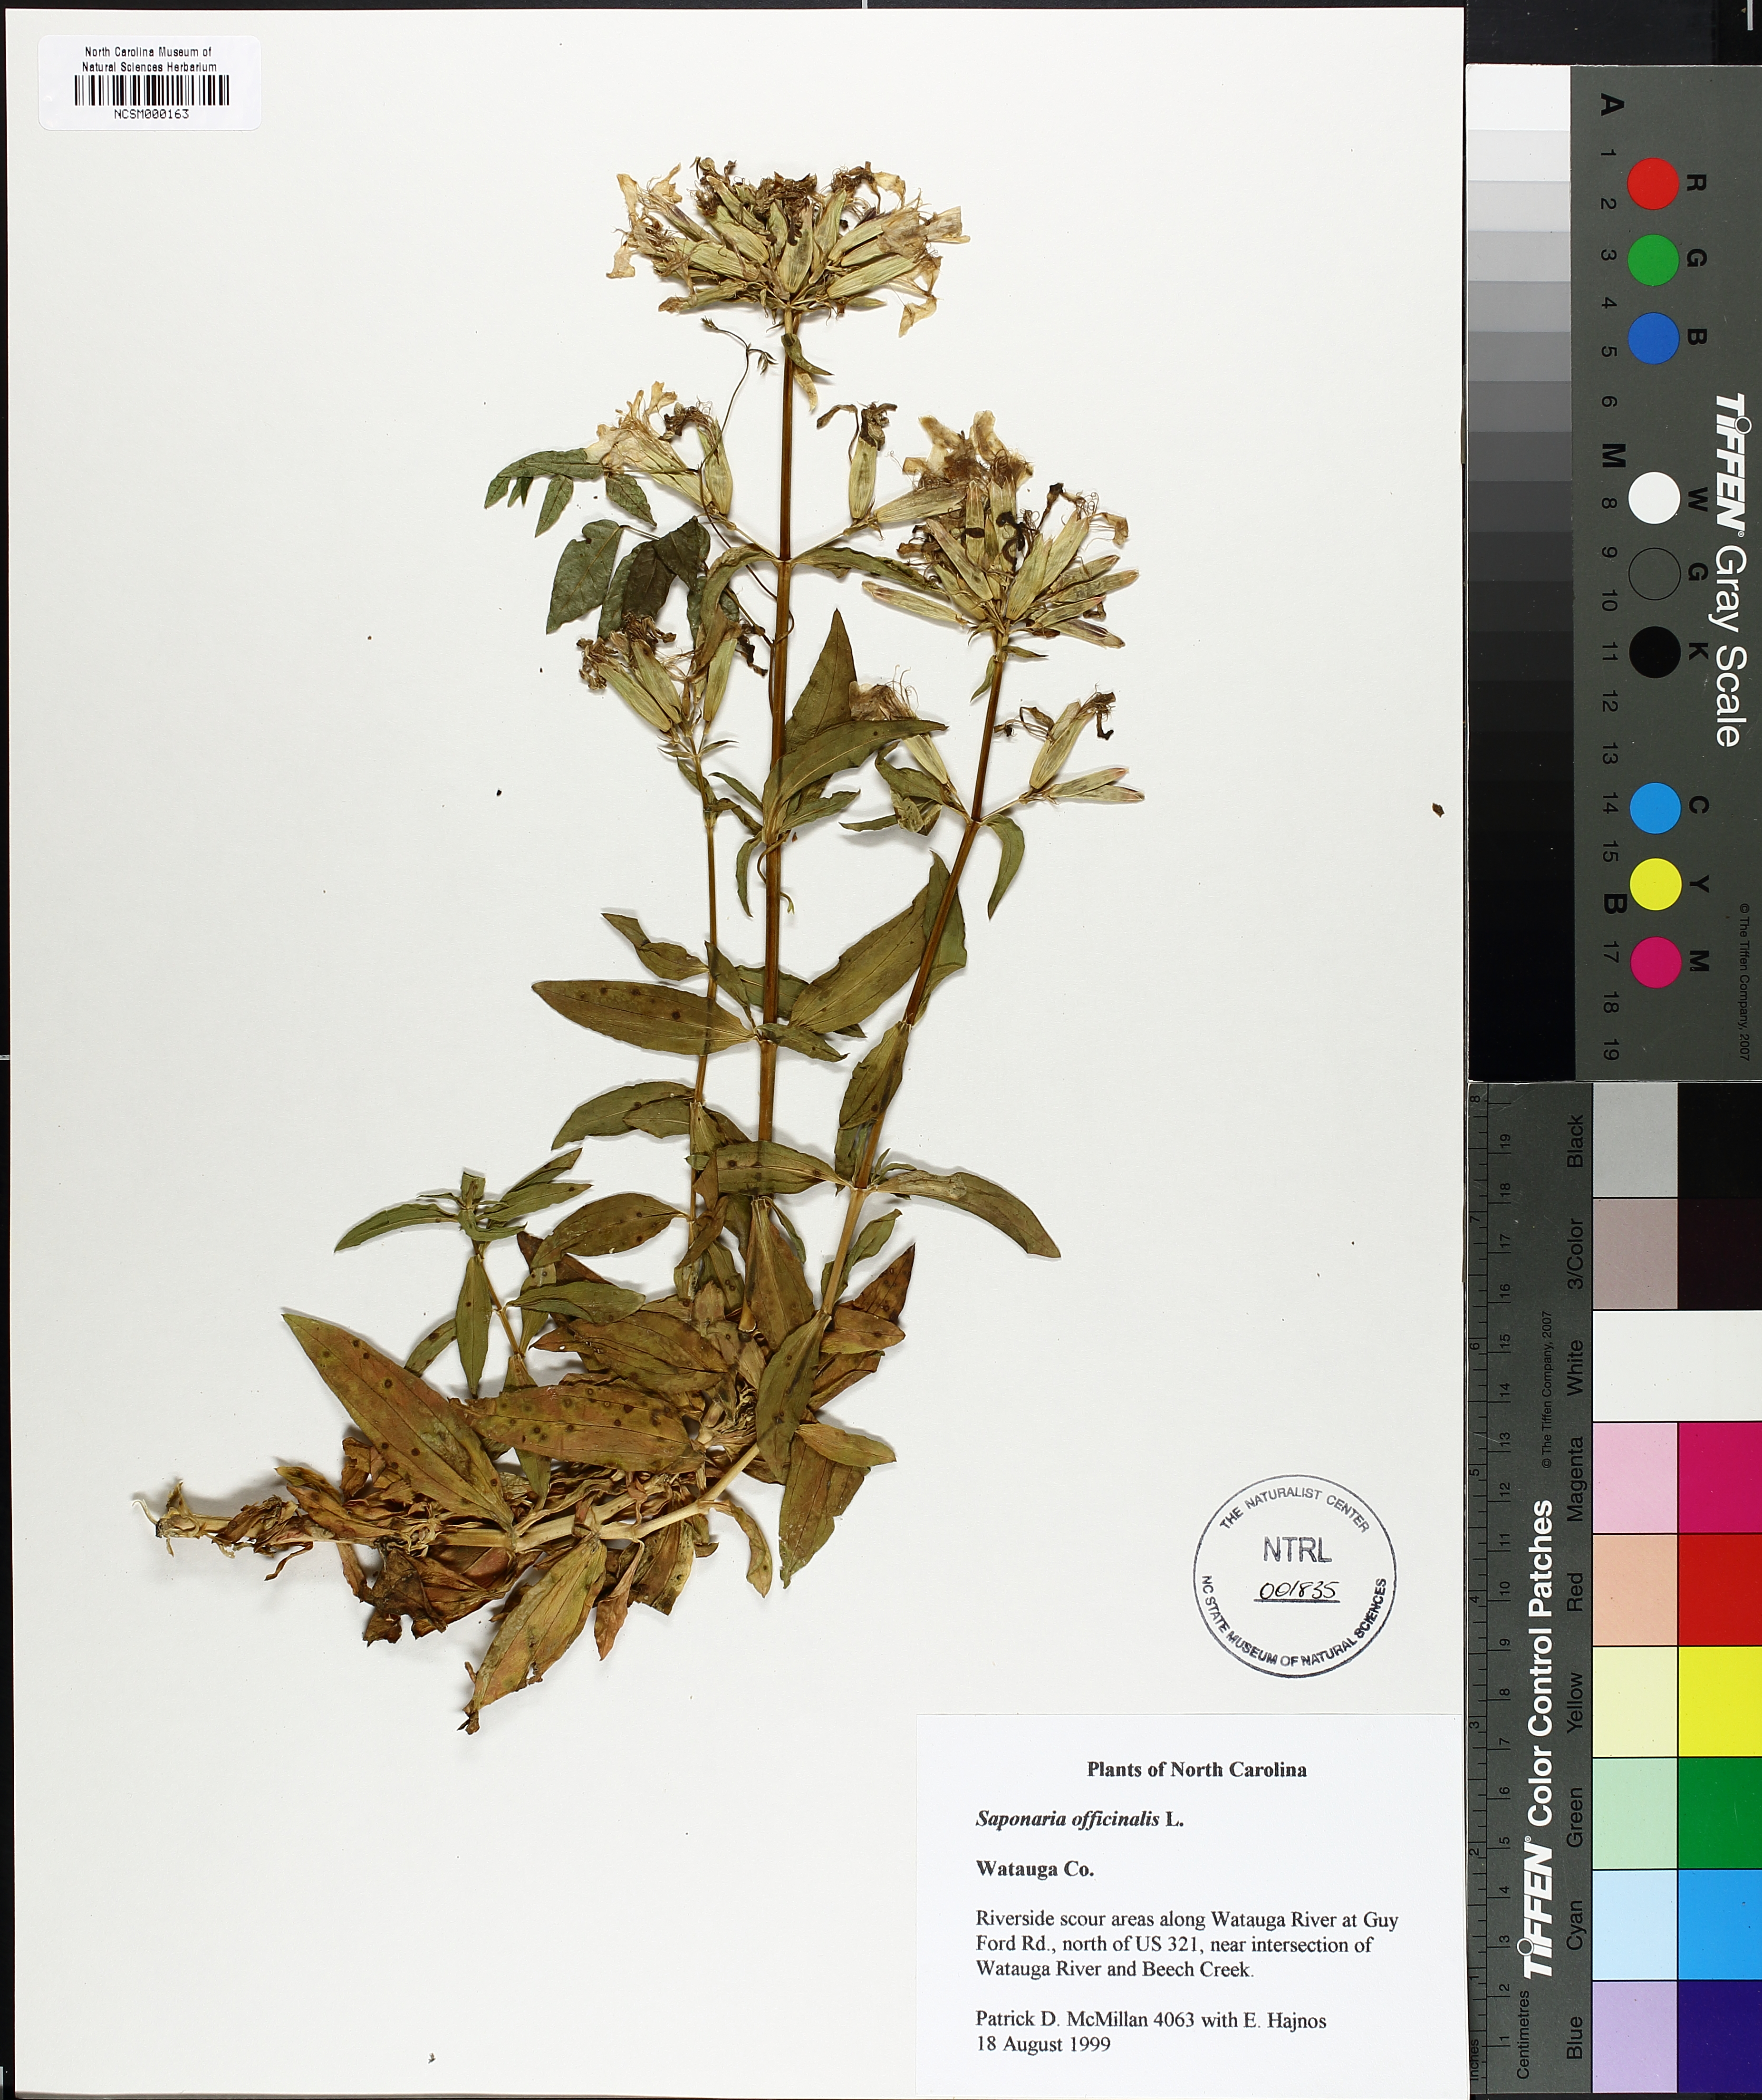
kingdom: Plantae
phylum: Tracheophyta
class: Magnoliopsida
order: Caryophyllales
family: Caryophyllaceae
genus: Saponaria
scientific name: Saponaria officinalis
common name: Soapwort
